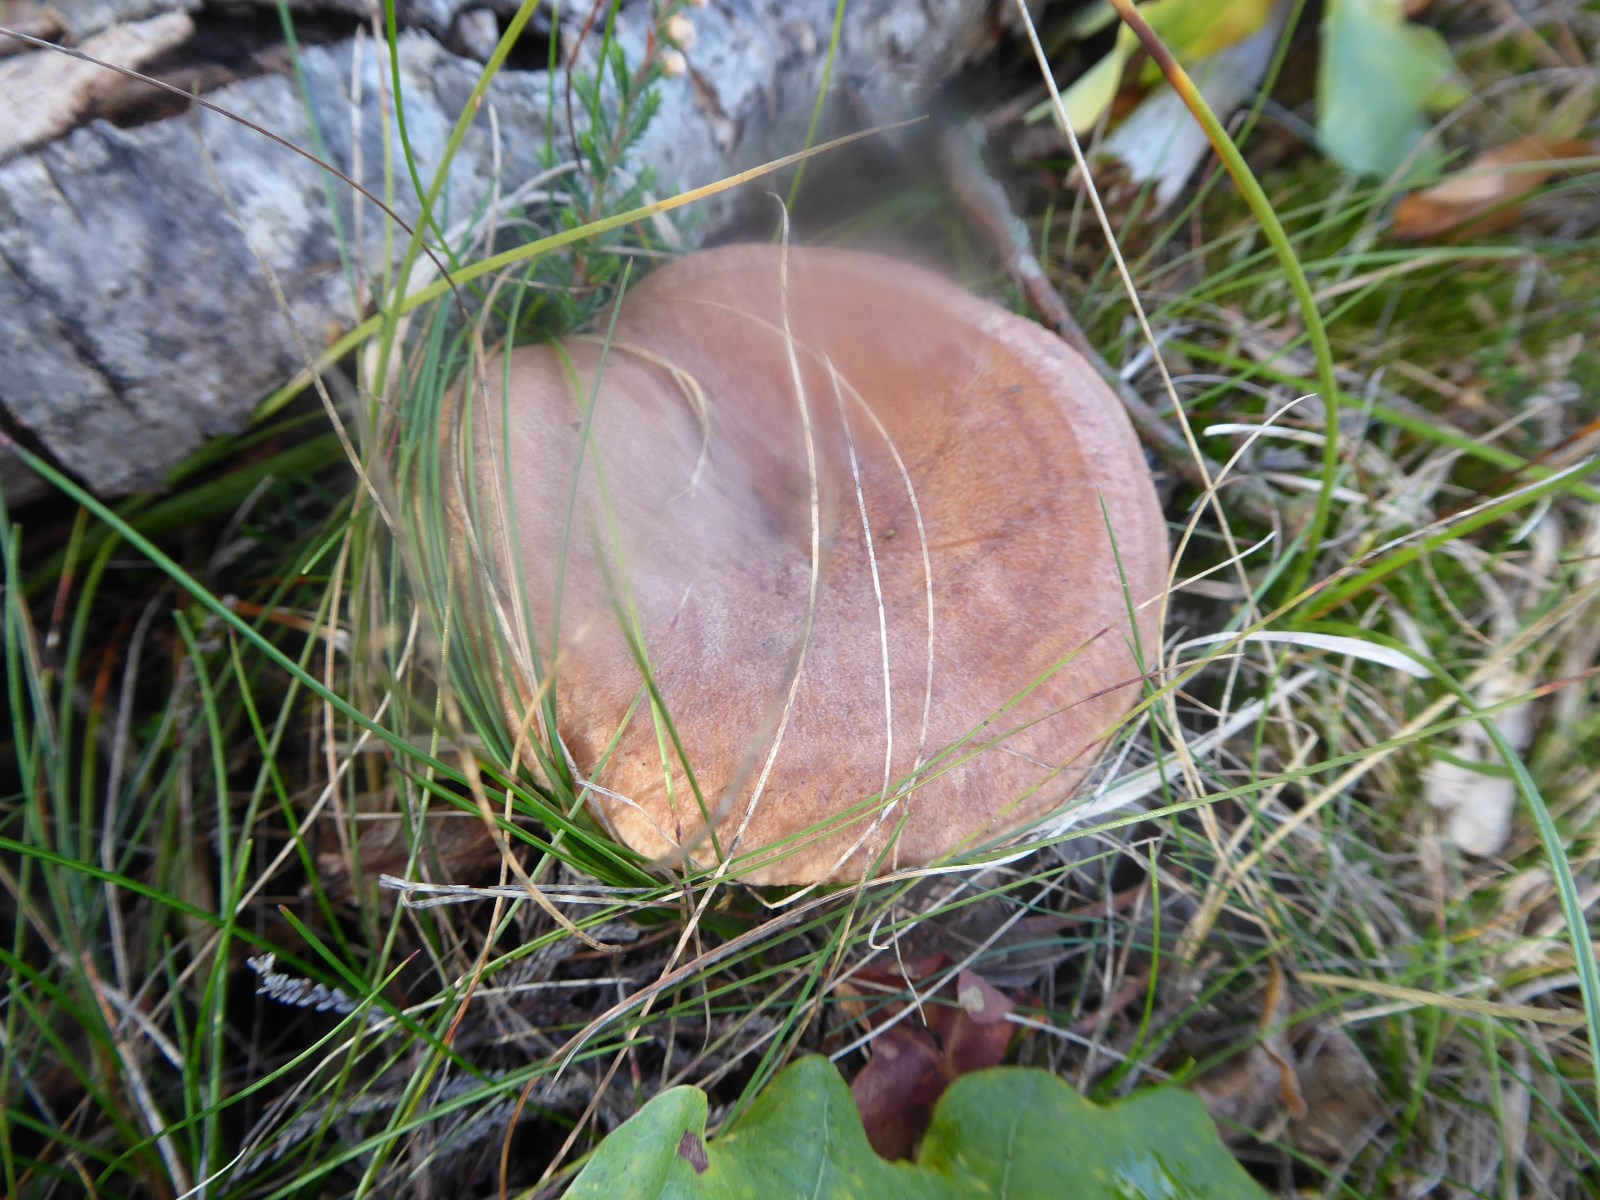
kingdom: Fungi
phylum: Basidiomycota
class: Agaricomycetes
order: Russulales
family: Russulaceae
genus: Lactarius
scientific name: Lactarius quietus
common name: ege-mælkehat
